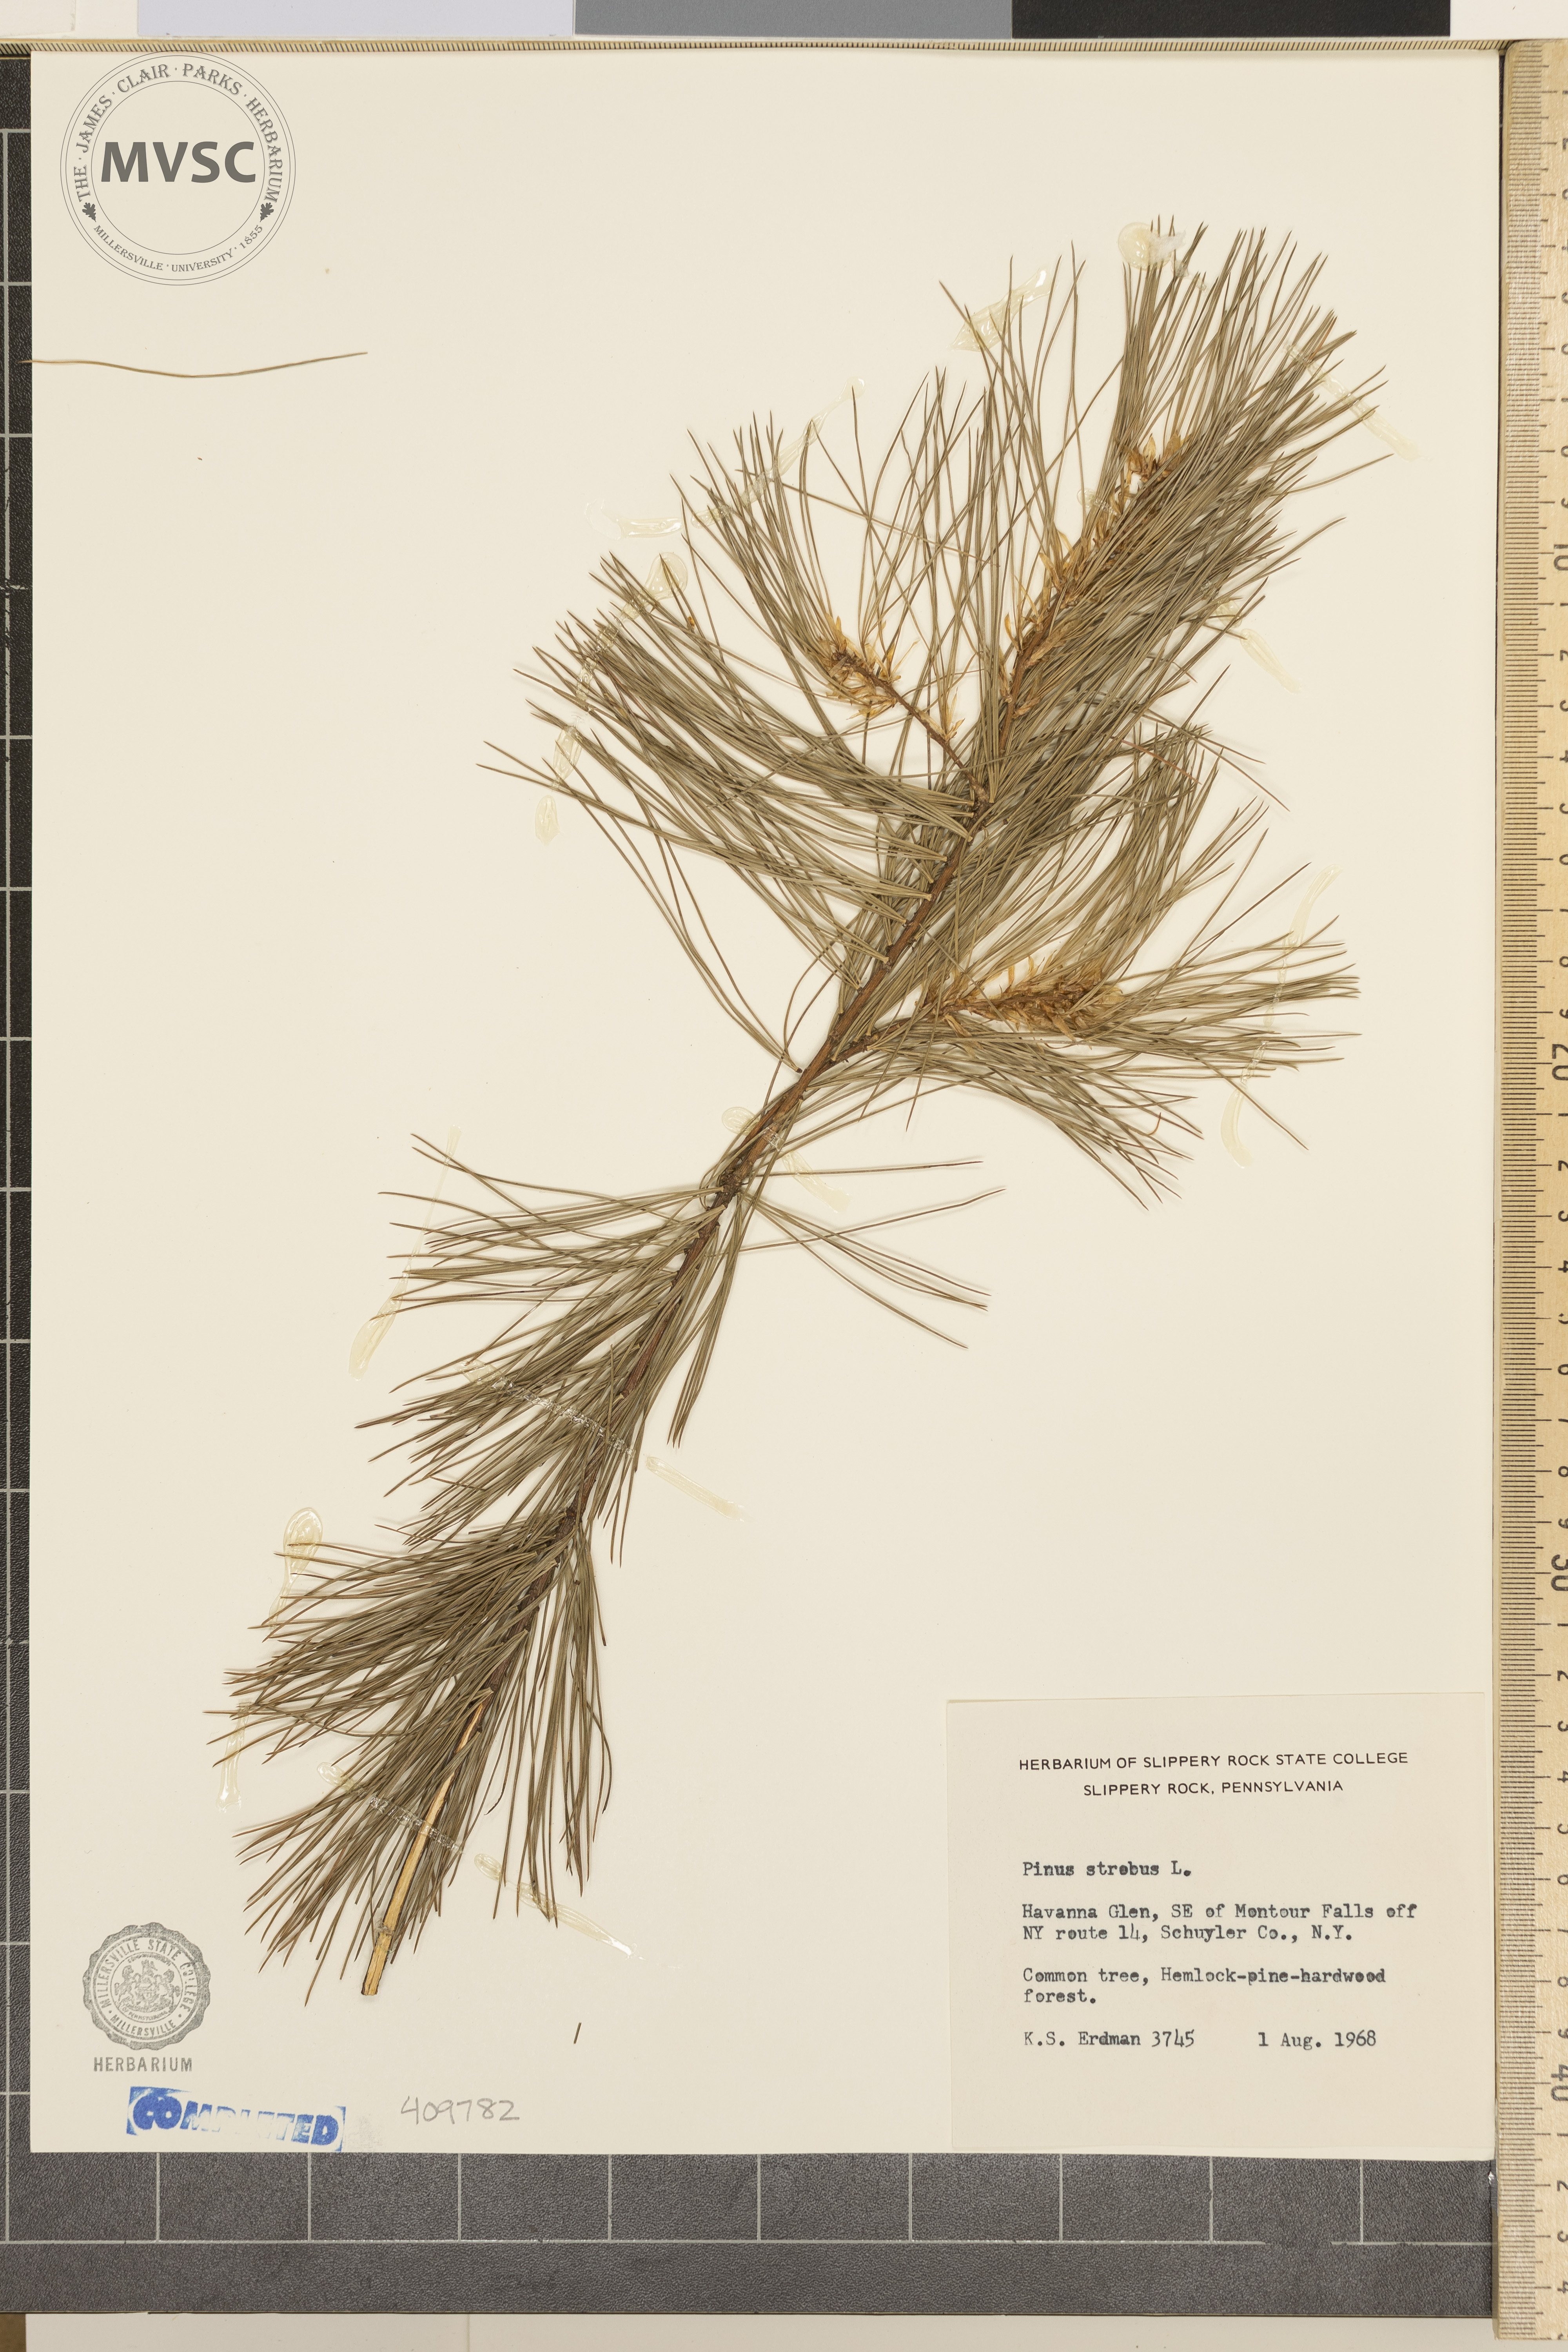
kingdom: Plantae
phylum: Tracheophyta
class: Pinopsida
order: Pinales
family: Pinaceae
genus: Pinus
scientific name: Pinus strobus
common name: Weymouth pine
